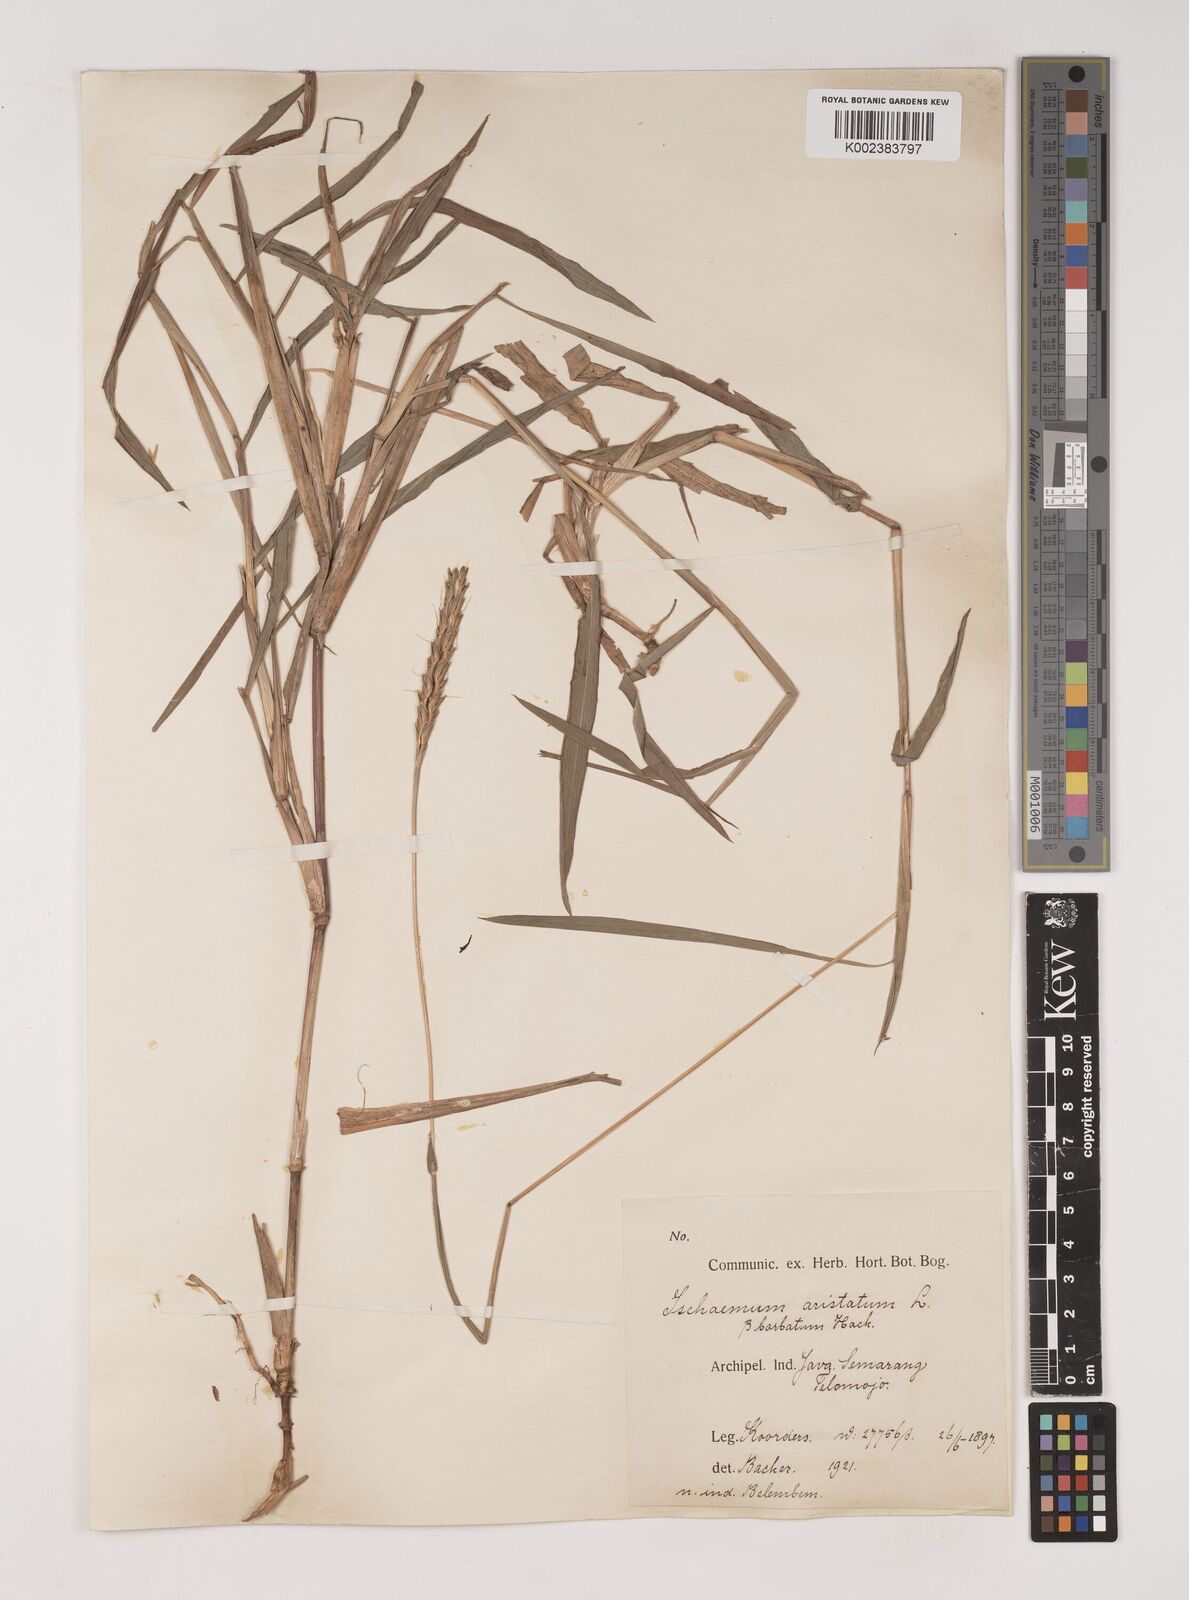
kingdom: Plantae
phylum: Tracheophyta
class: Liliopsida
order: Poales
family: Poaceae
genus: Ischaemum
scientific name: Ischaemum barbatum
